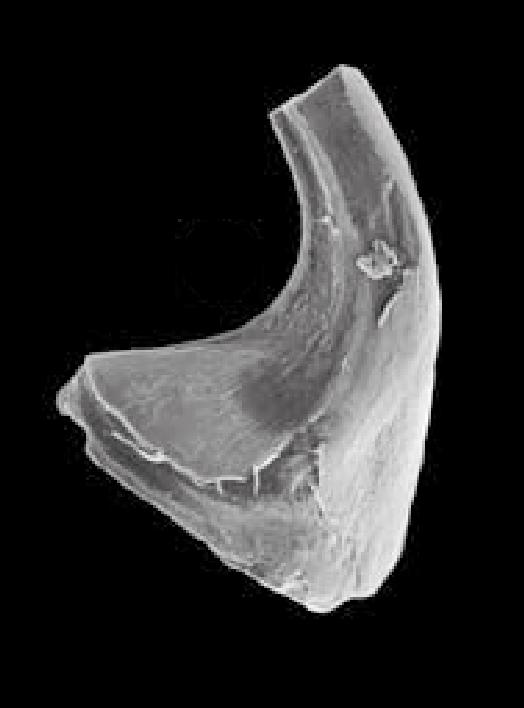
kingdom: Animalia
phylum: Chordata
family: Protopanderodontidae
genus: Variabiloconus
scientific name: Variabiloconus
